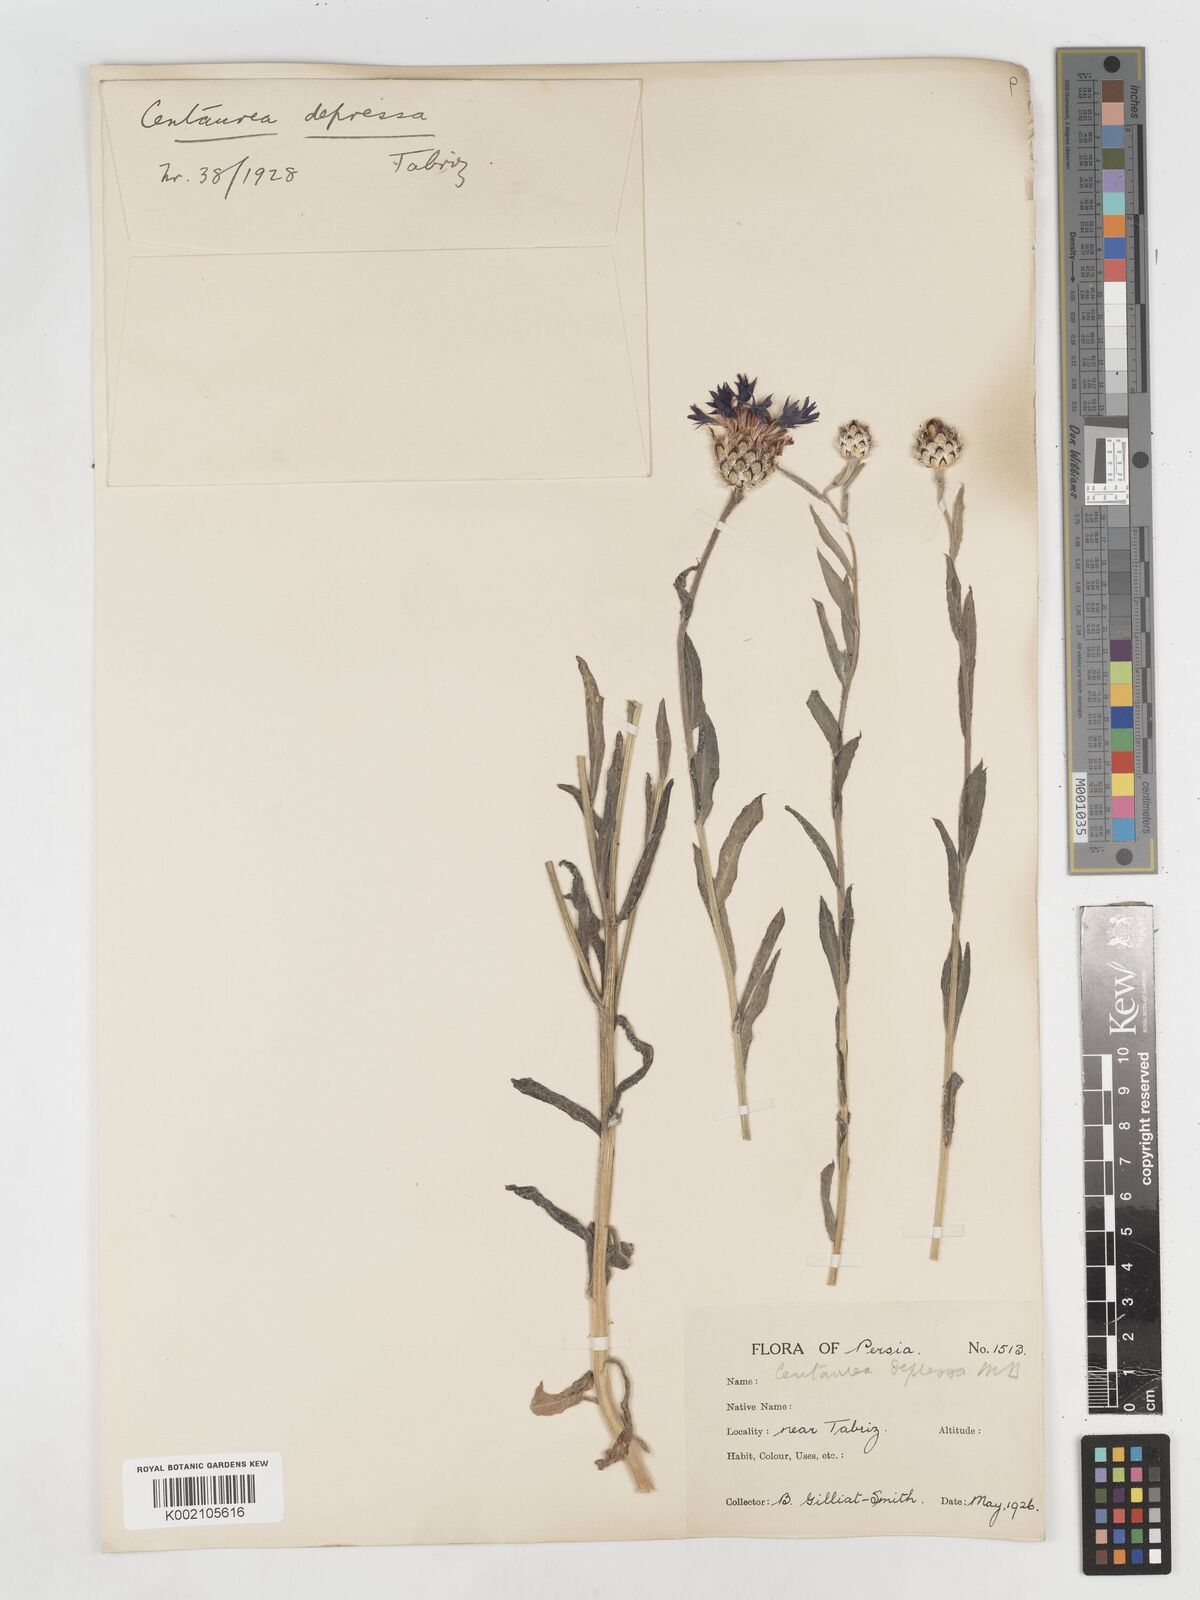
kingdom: Plantae
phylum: Tracheophyta
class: Magnoliopsida
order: Asterales
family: Asteraceae
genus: Centaurea
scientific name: Centaurea depressa
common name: Iranian knapweed
